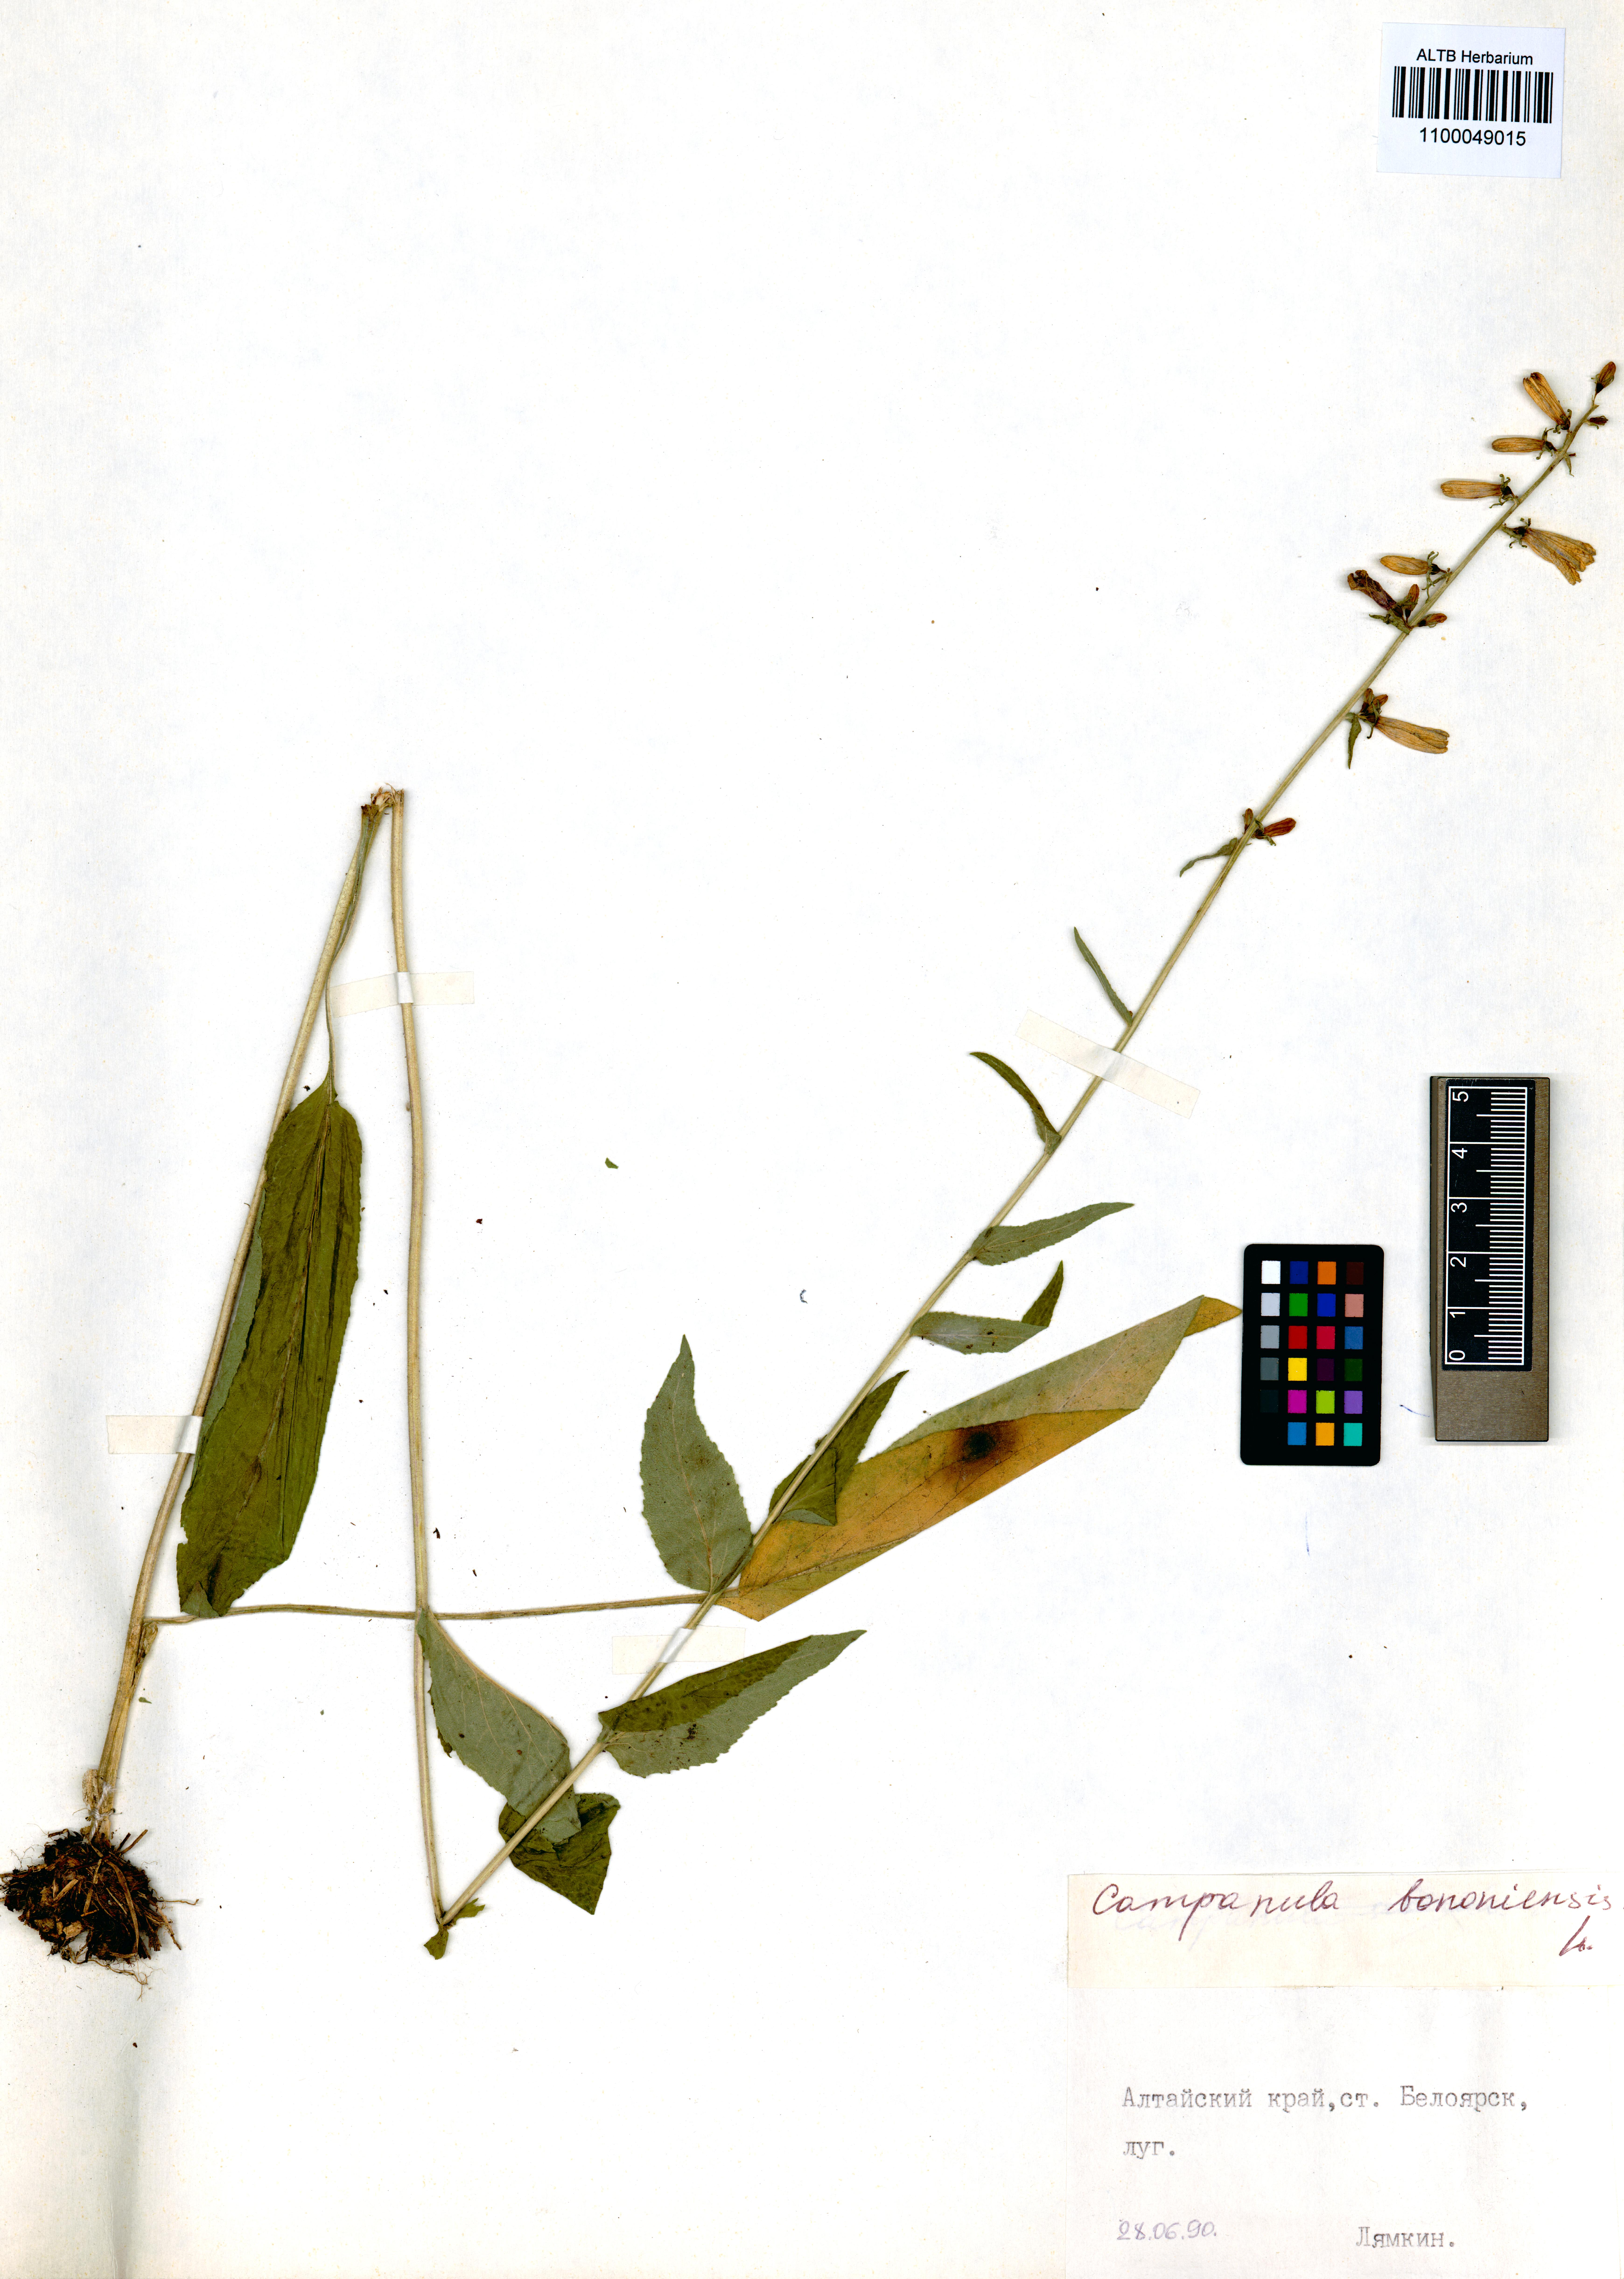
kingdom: Plantae
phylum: Tracheophyta
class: Magnoliopsida
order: Asterales
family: Campanulaceae
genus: Campanula
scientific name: Campanula bononiensis
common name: Pale bellflower
